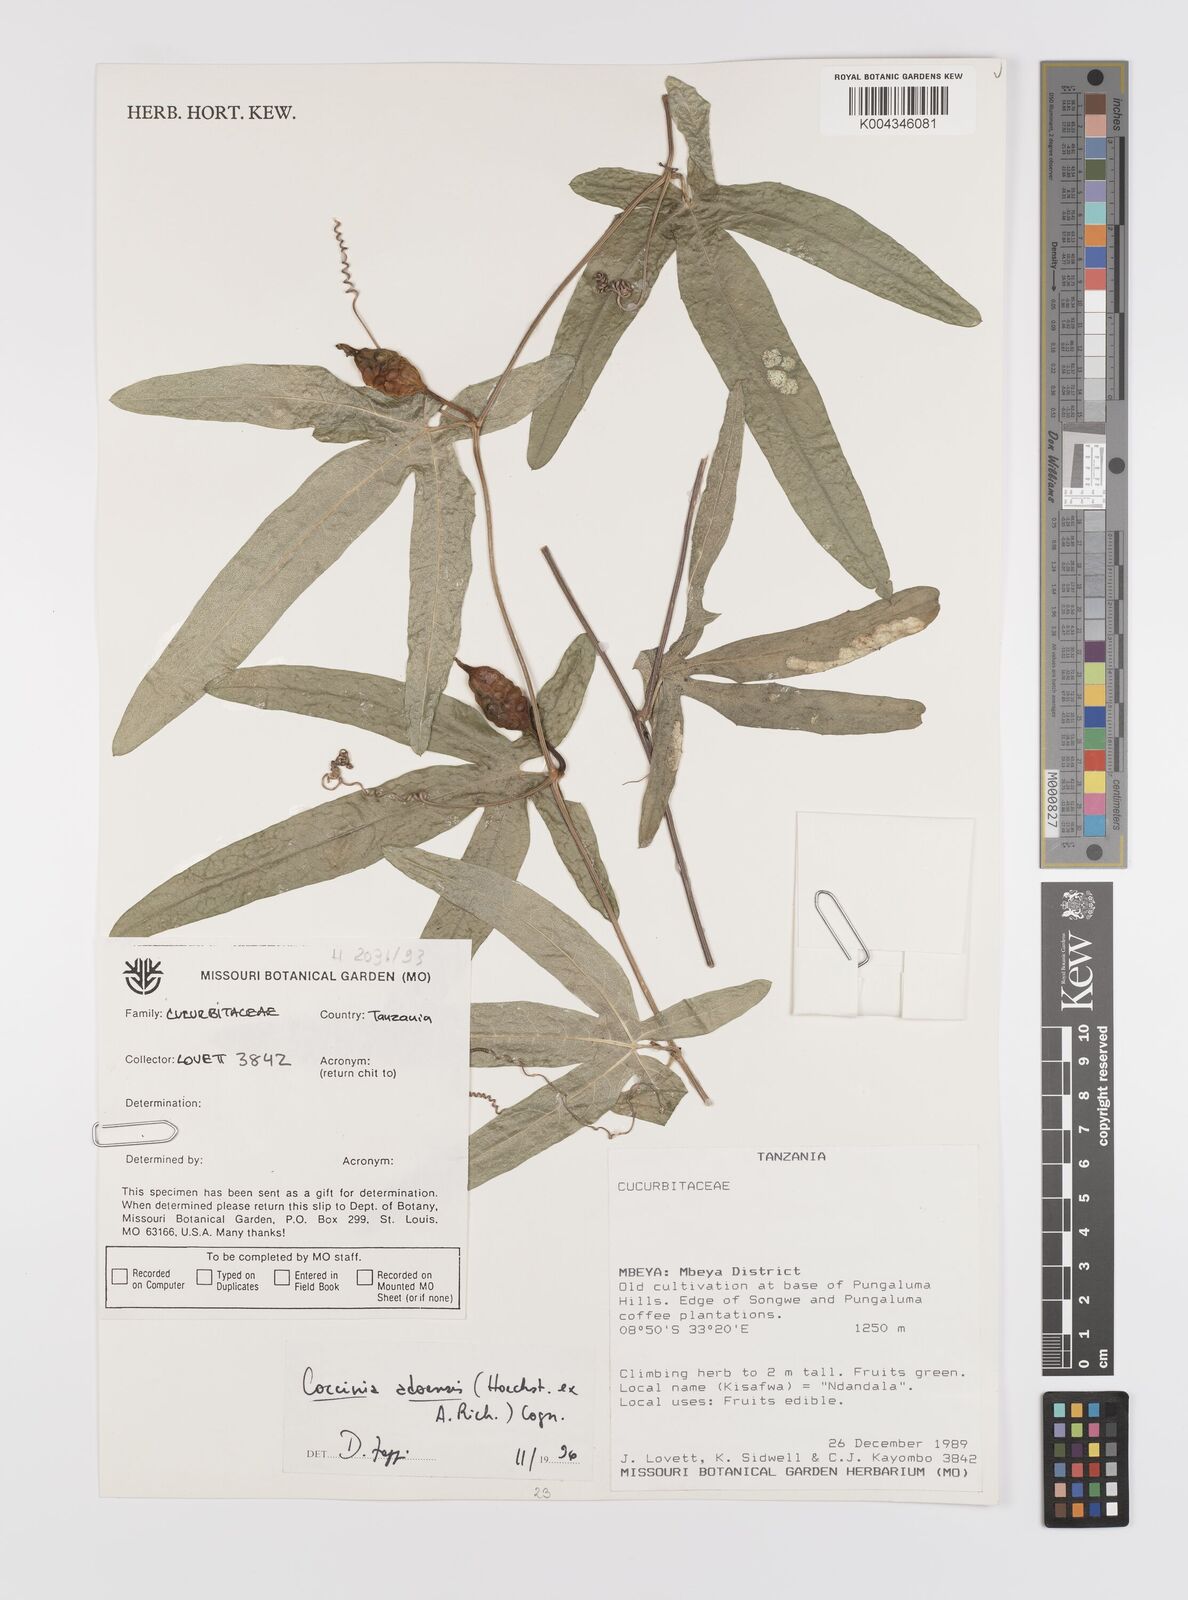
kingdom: Plantae
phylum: Tracheophyta
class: Magnoliopsida
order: Cucurbitales
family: Cucurbitaceae
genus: Coccinia
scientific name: Coccinia adoensis
